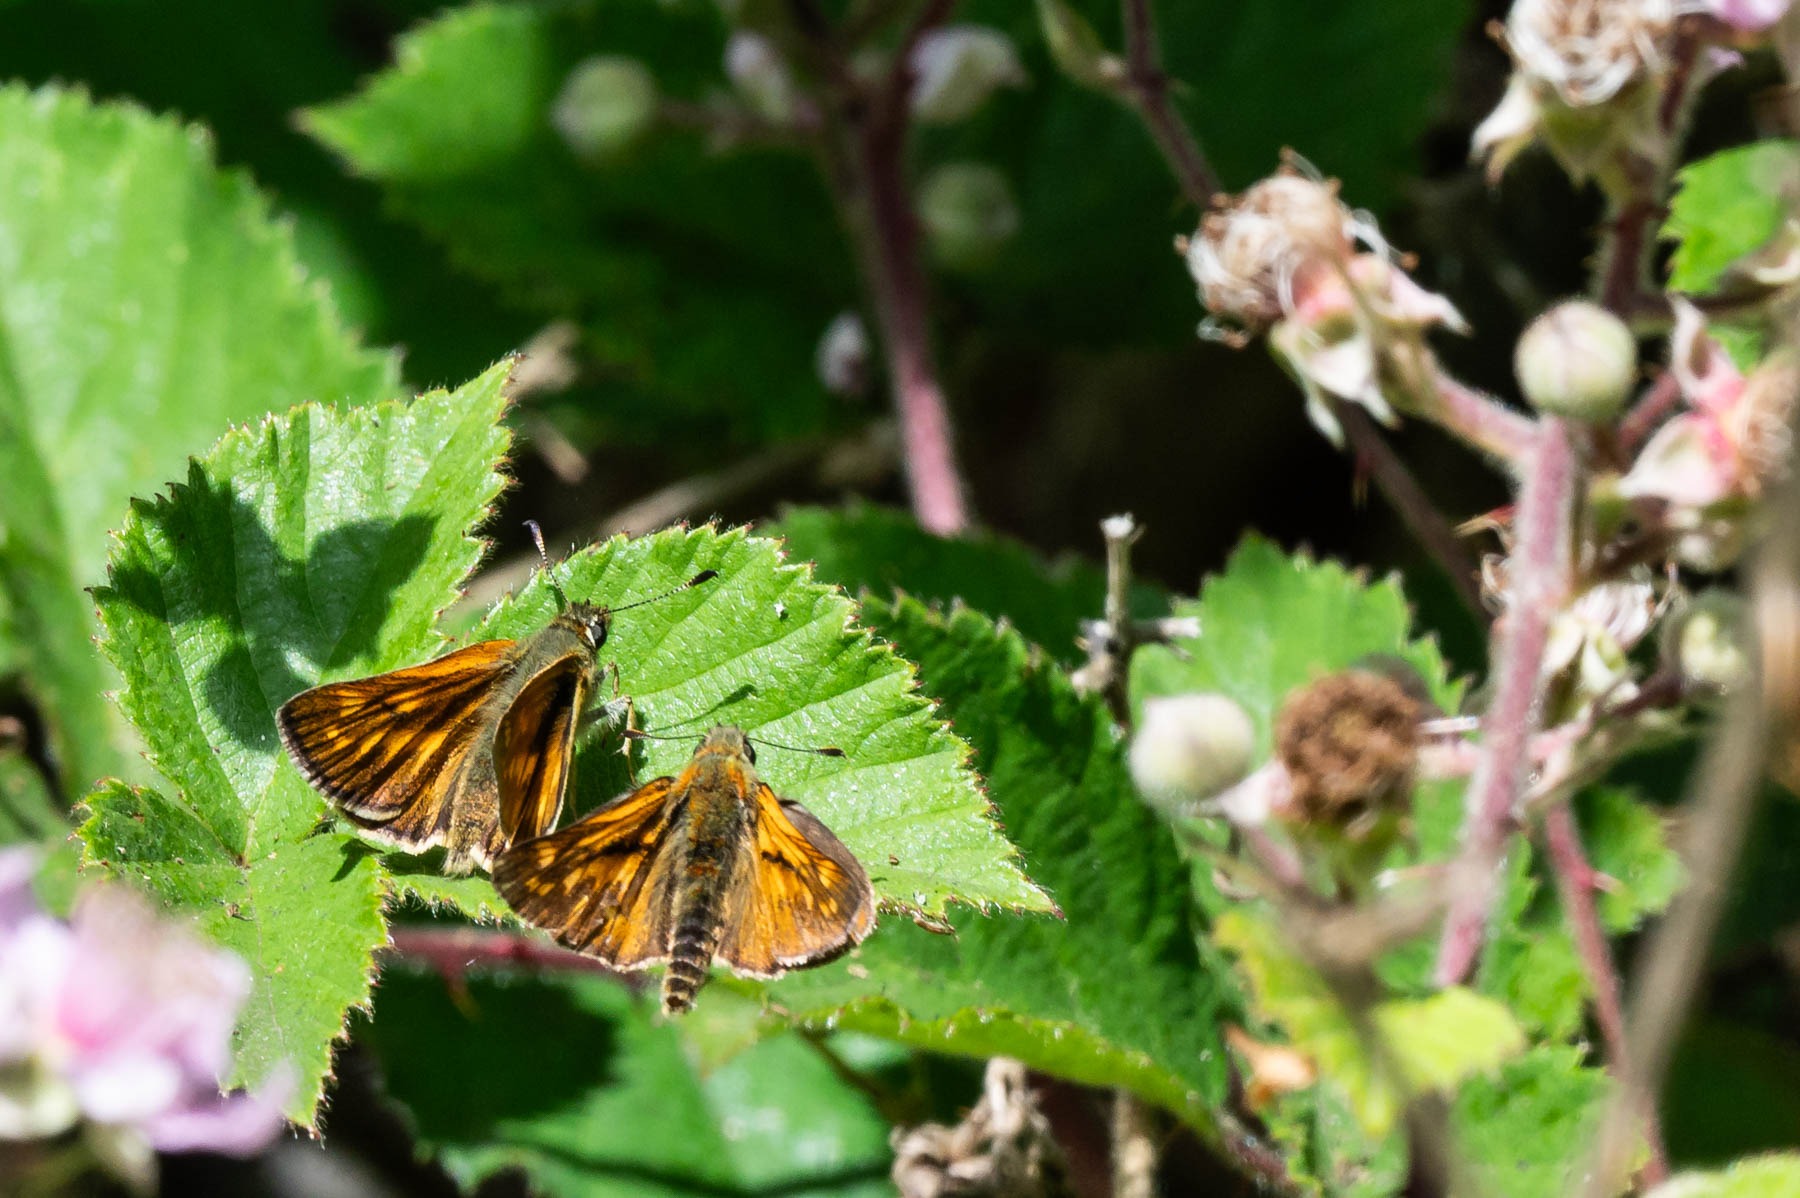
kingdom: Animalia
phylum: Arthropoda
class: Insecta
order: Lepidoptera
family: Hesperiidae
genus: Ochlodes
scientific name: Ochlodes venata
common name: Stor bredpande
